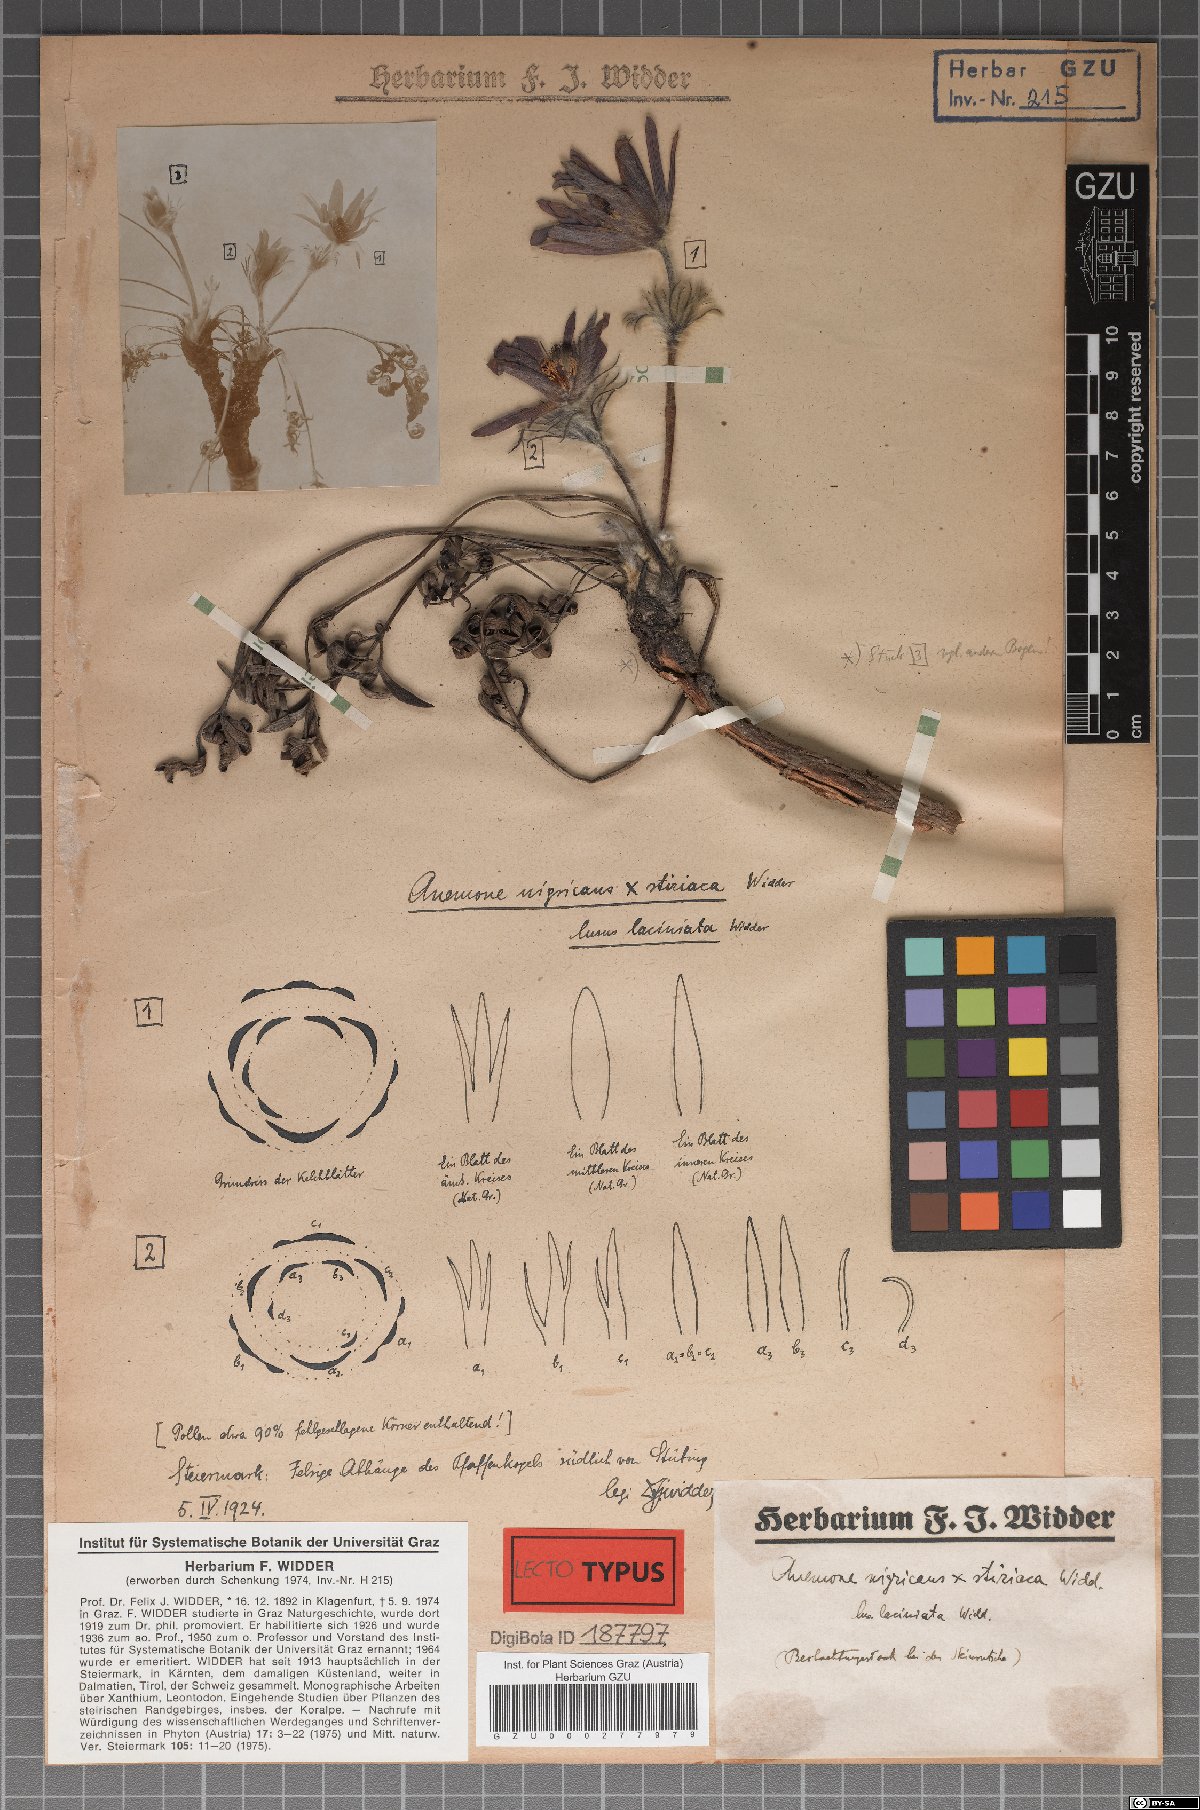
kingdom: Plantae
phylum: Tracheophyta
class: Magnoliopsida
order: Ranunculales
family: Ranunculaceae
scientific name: Ranunculaceae
